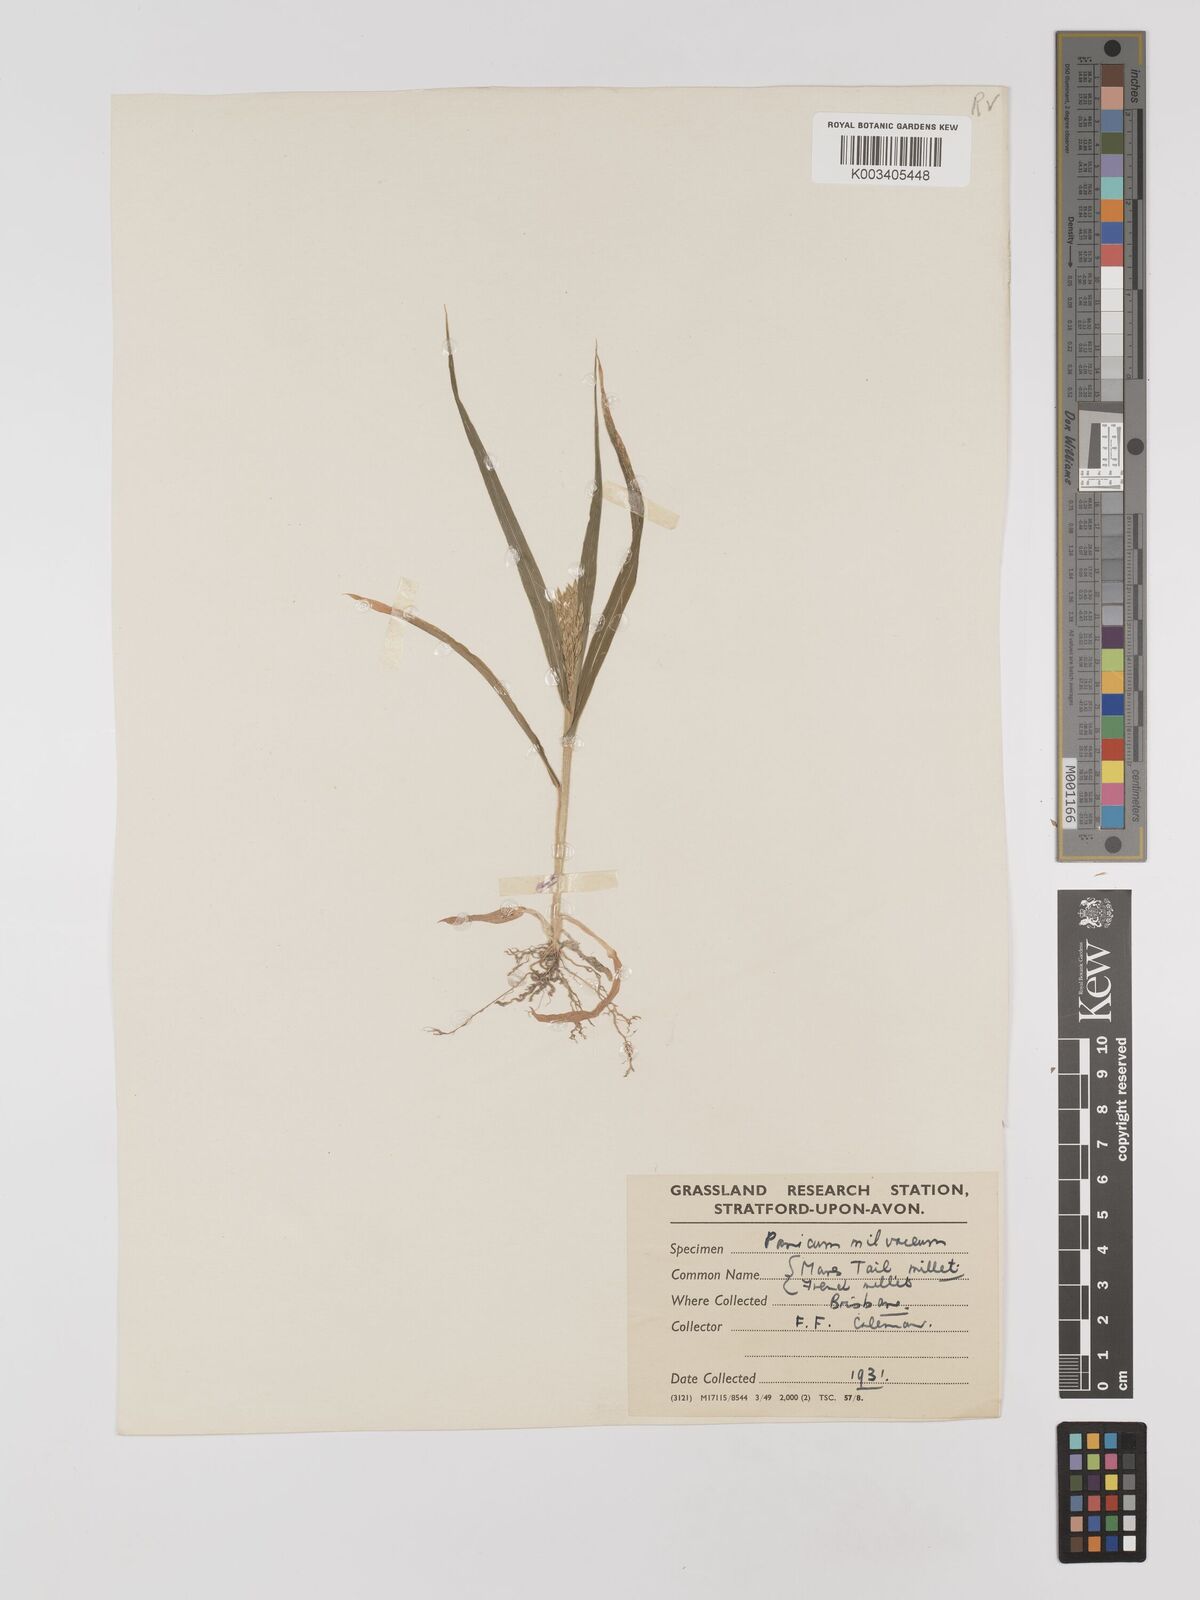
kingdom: Plantae
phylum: Tracheophyta
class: Liliopsida
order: Poales
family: Poaceae
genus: Panicum
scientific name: Panicum miliaceum
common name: Common millet
